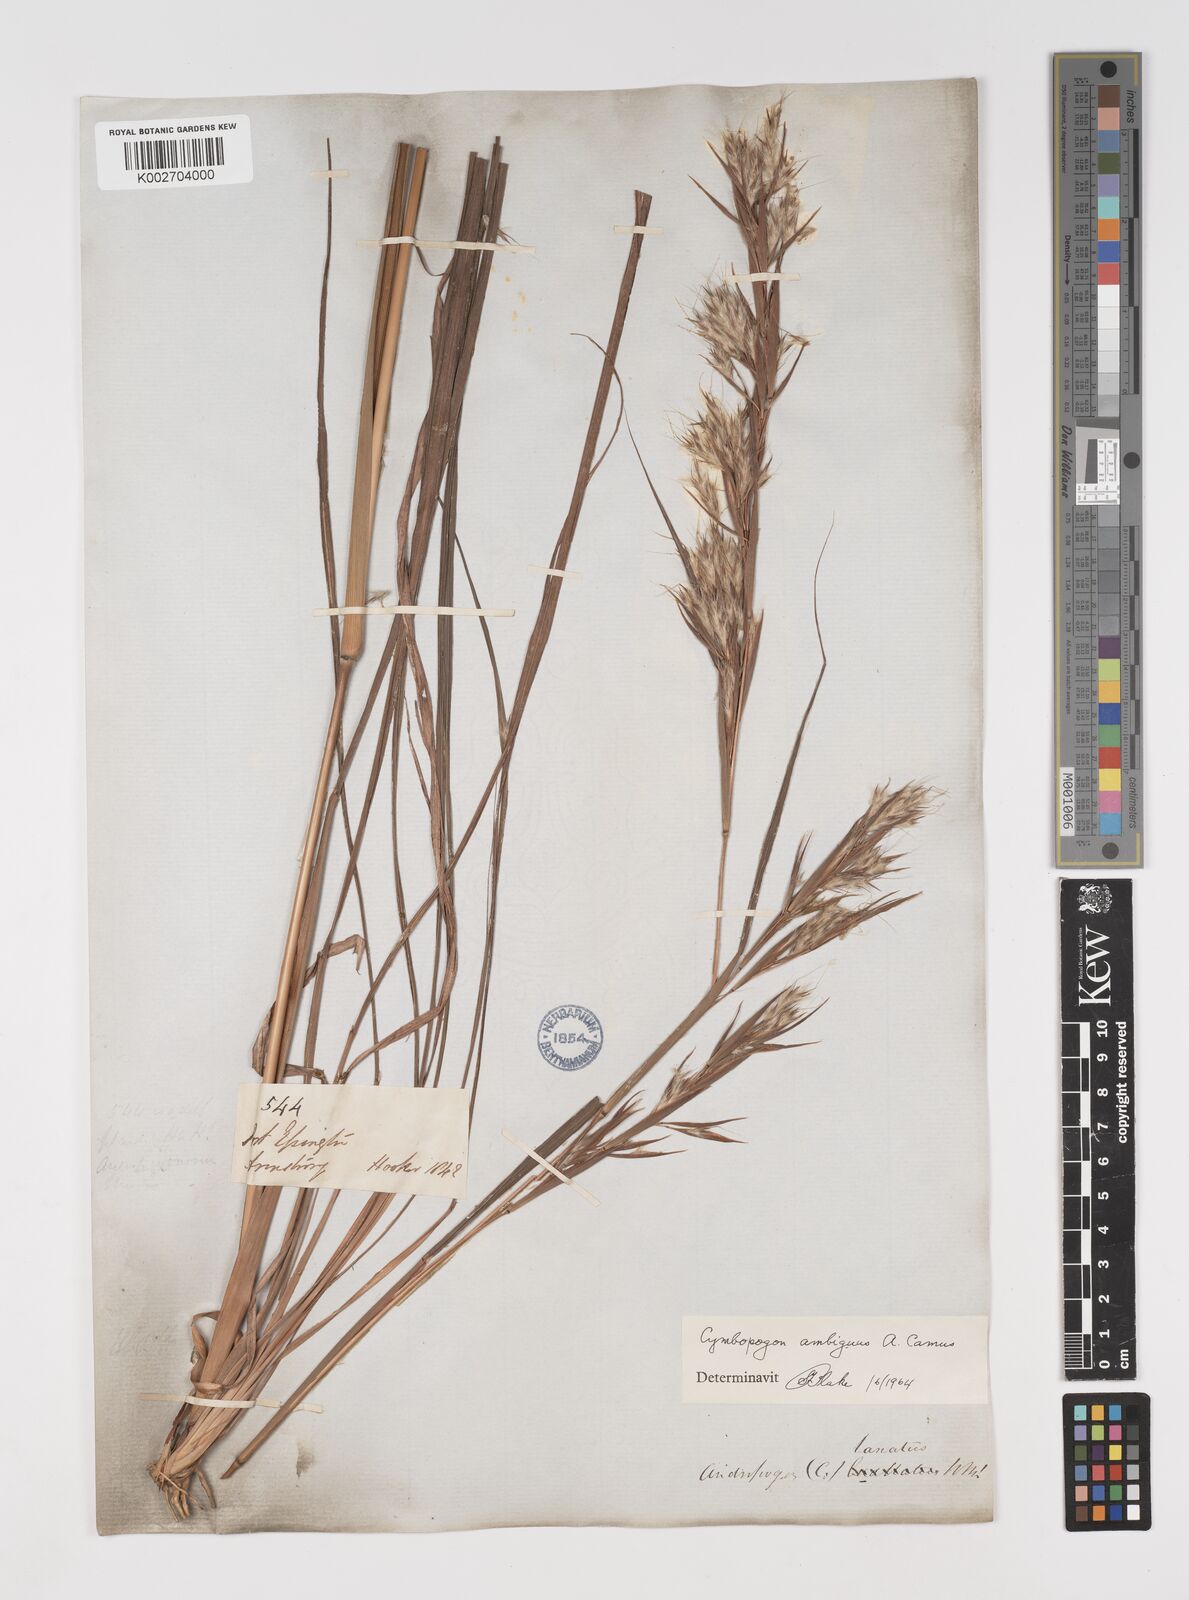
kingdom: Plantae
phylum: Tracheophyta
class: Liliopsida
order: Poales
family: Poaceae
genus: Cymbopogon
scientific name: Cymbopogon ambiguus
